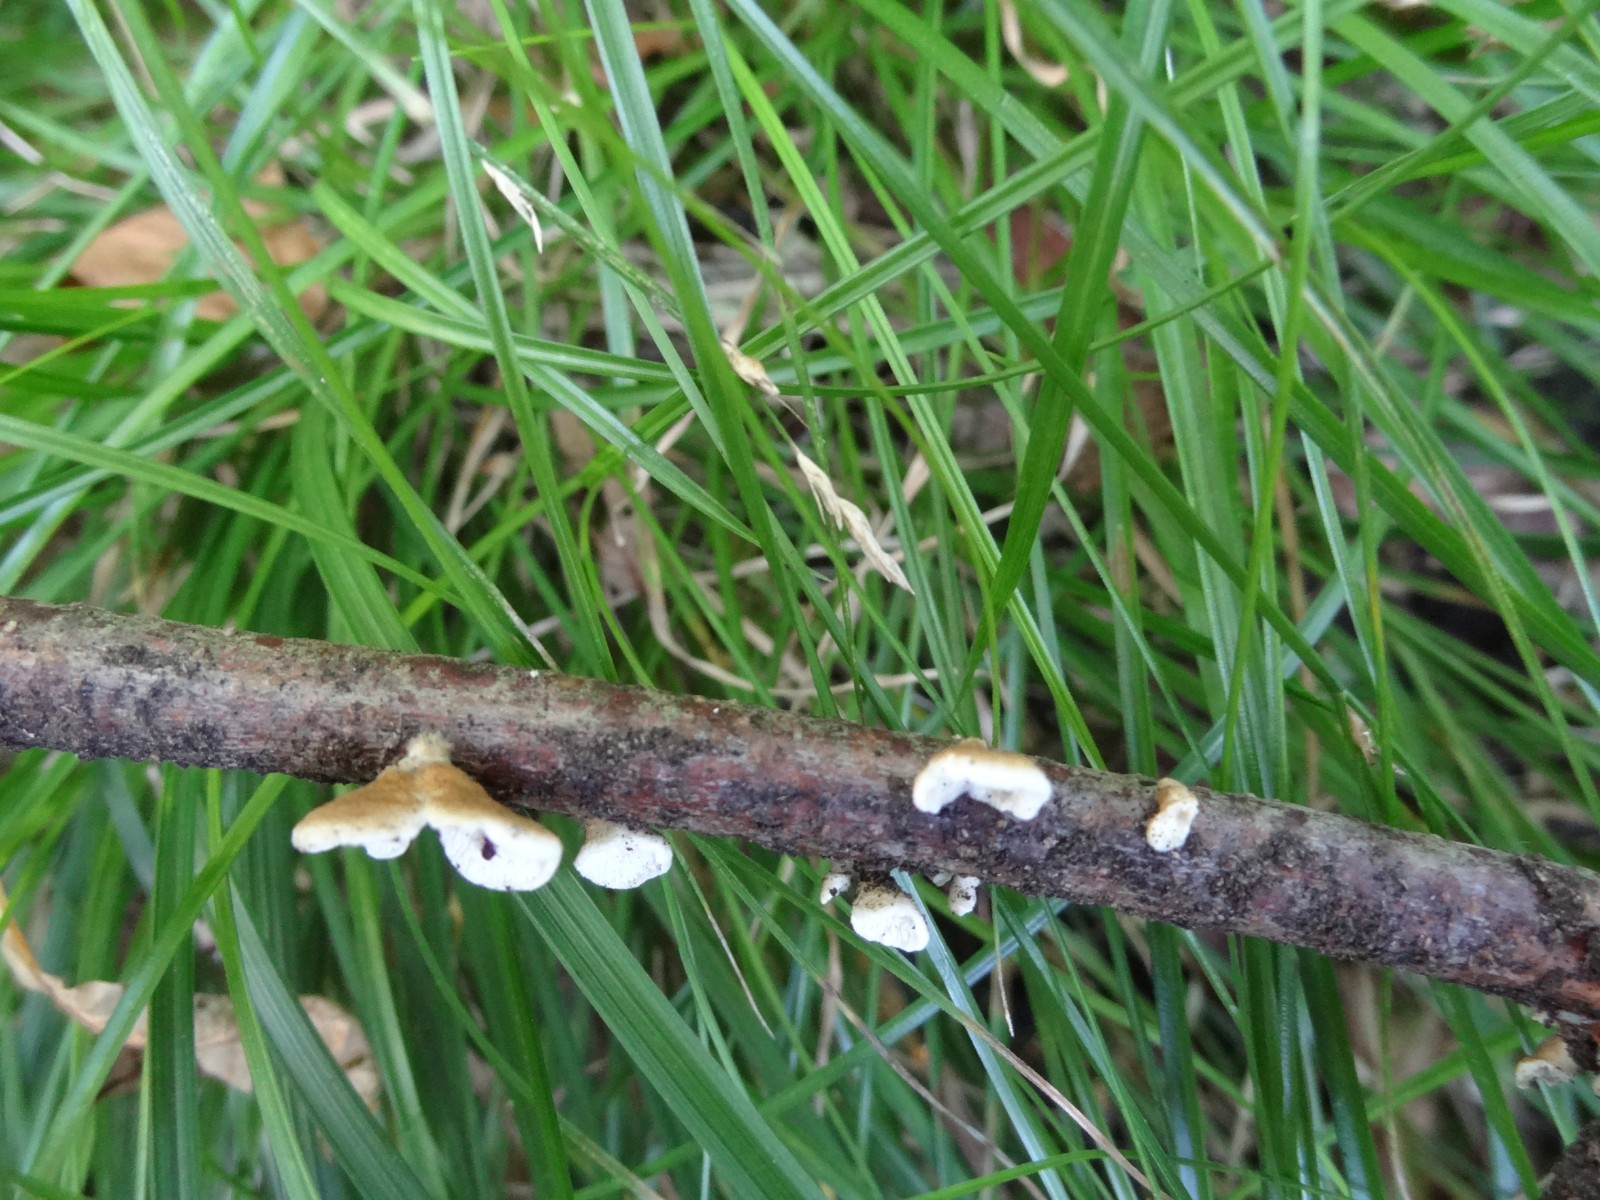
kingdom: Fungi
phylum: Basidiomycota
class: Agaricomycetes
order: Amylocorticiales
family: Amylocorticiaceae
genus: Plicaturopsis
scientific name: Plicaturopsis crispa
